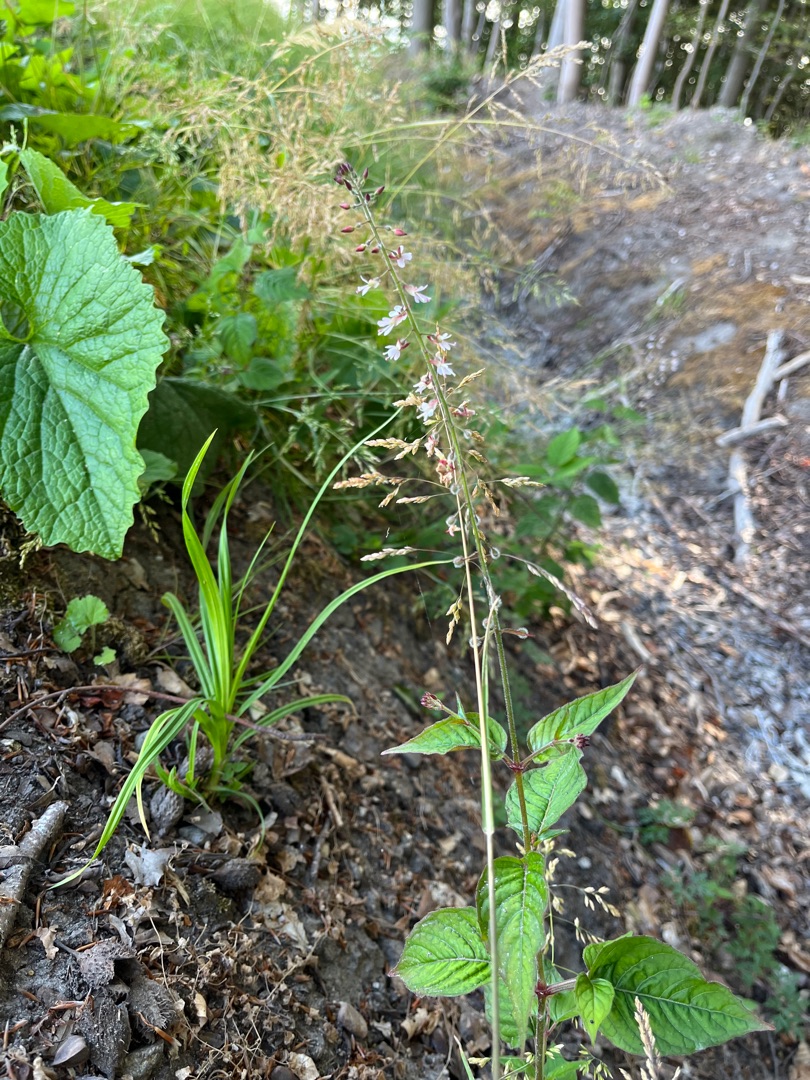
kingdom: Plantae
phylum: Tracheophyta
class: Magnoliopsida
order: Myrtales
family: Onagraceae
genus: Circaea
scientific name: Circaea lutetiana
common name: Dunet steffensurt
